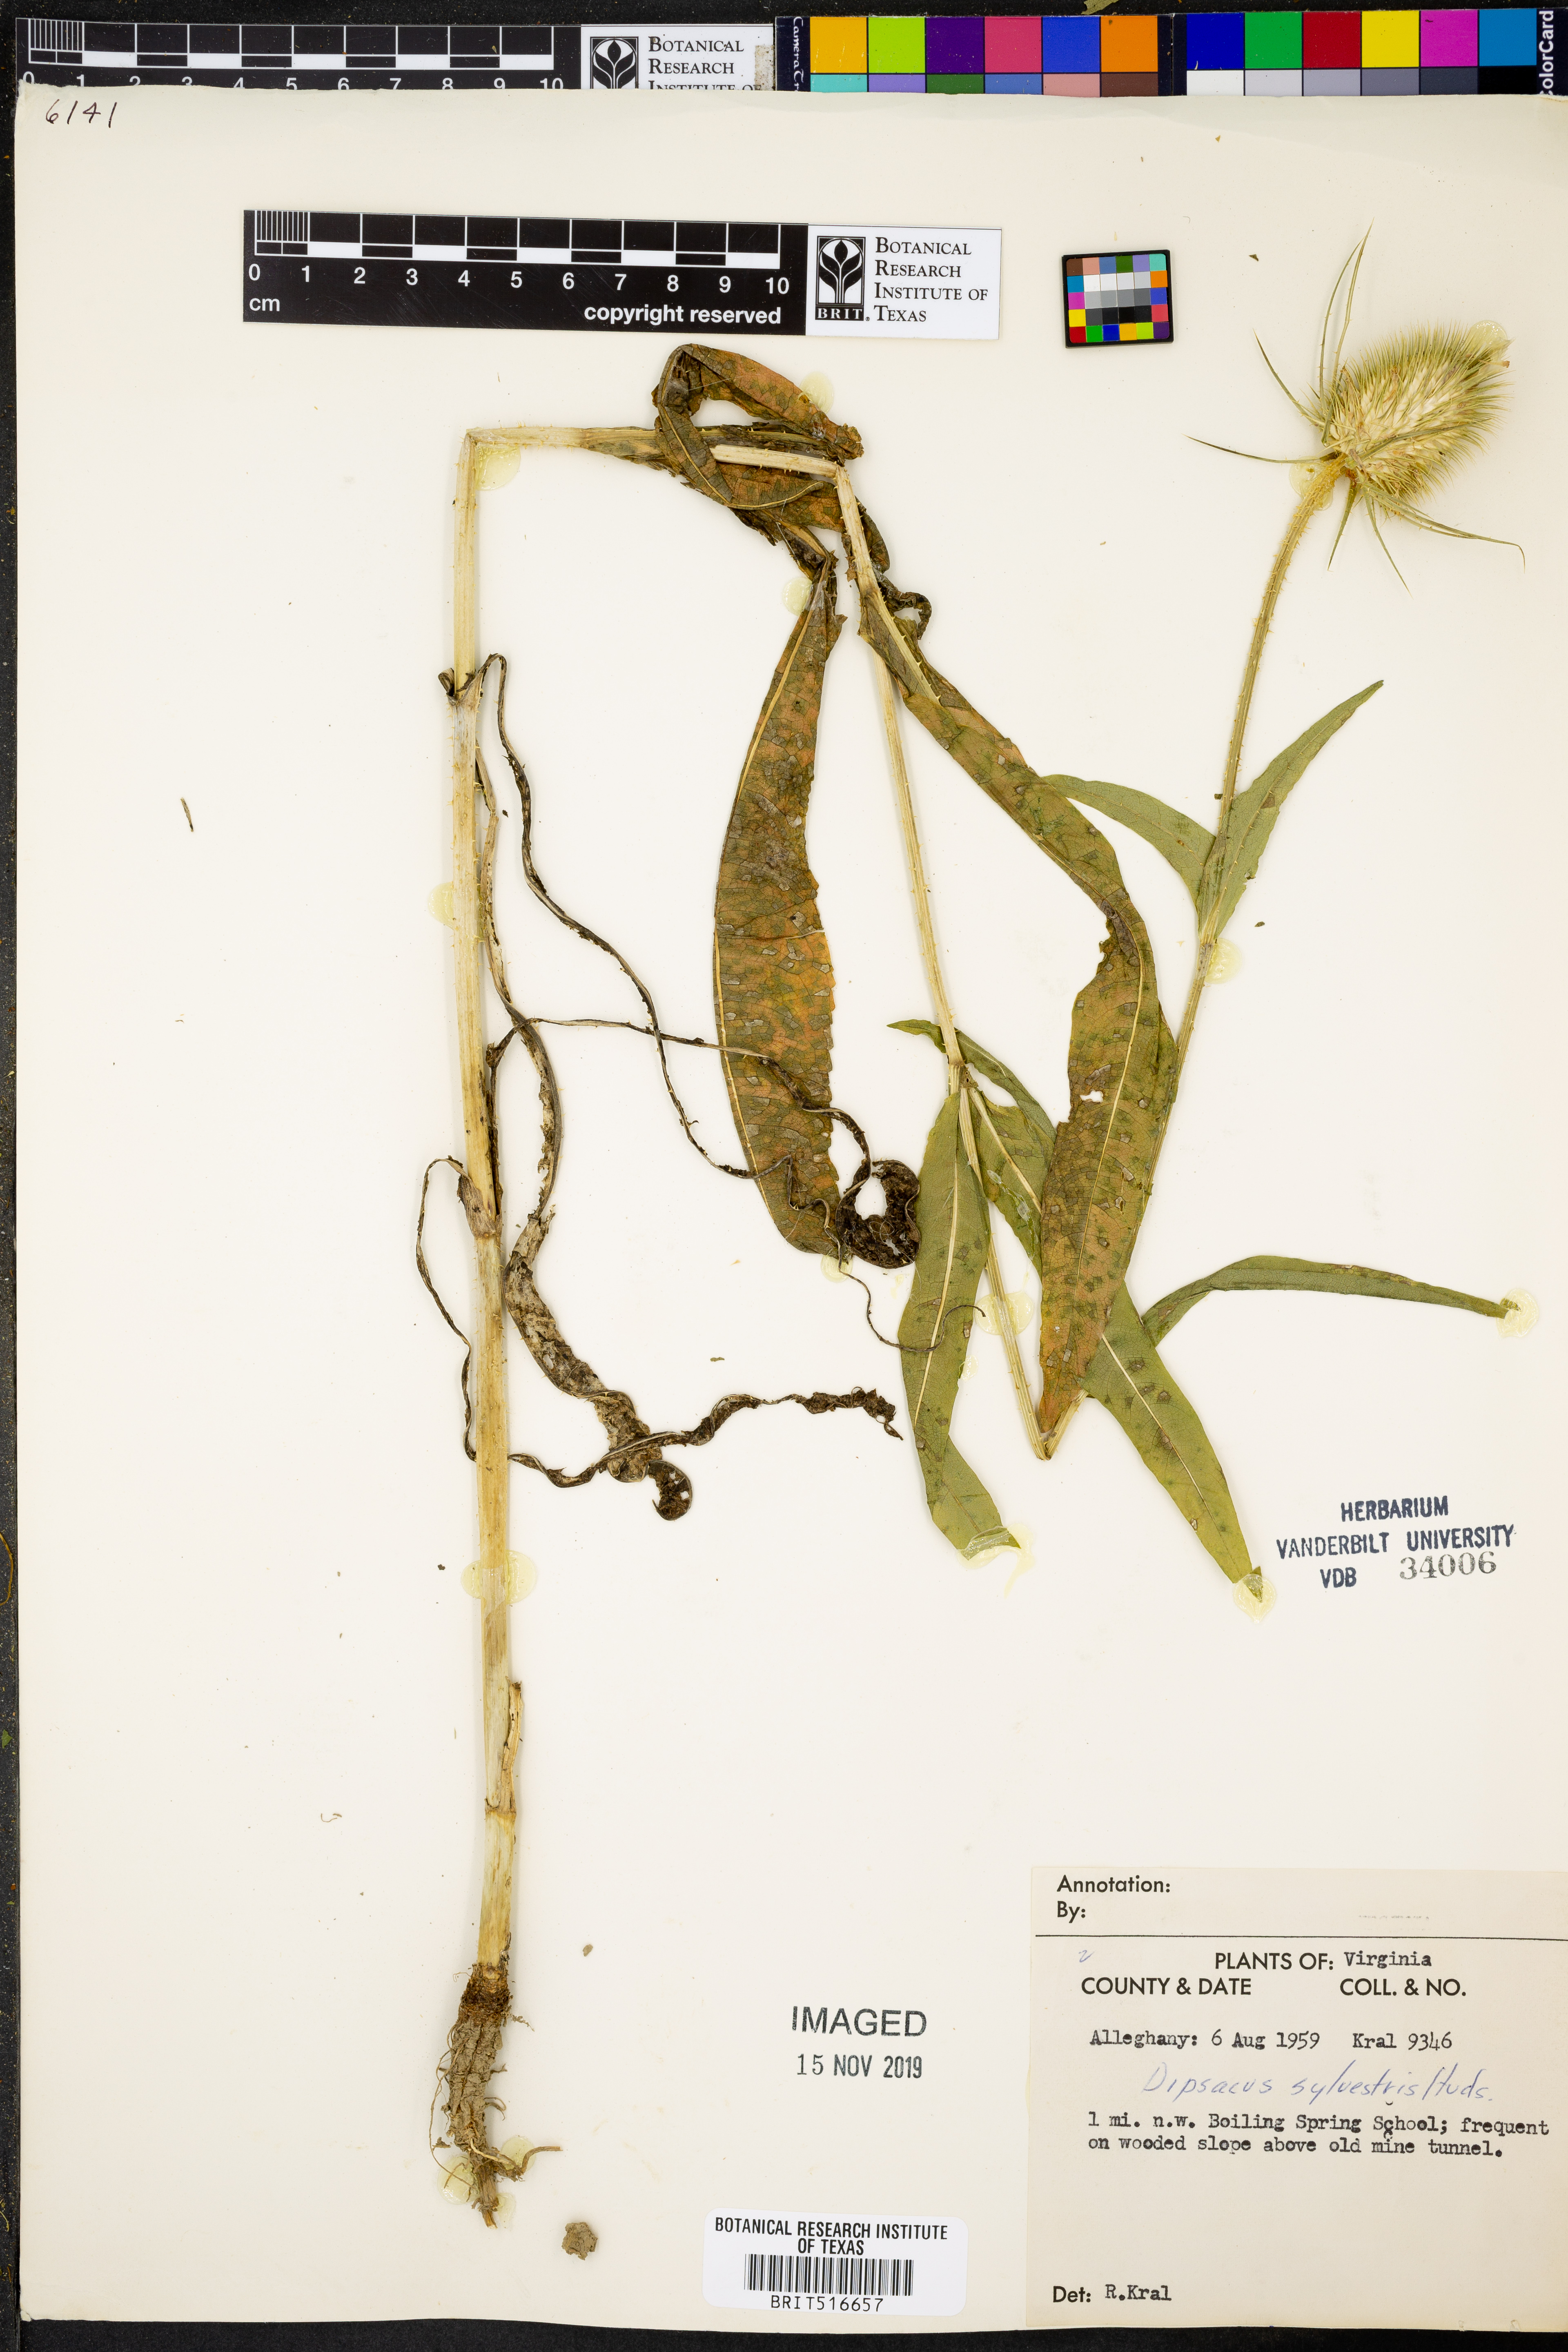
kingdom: Plantae
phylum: Tracheophyta
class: Magnoliopsida
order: Dipsacales
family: Caprifoliaceae
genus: Dipsacus
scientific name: Dipsacus fullonum
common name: Teasel
